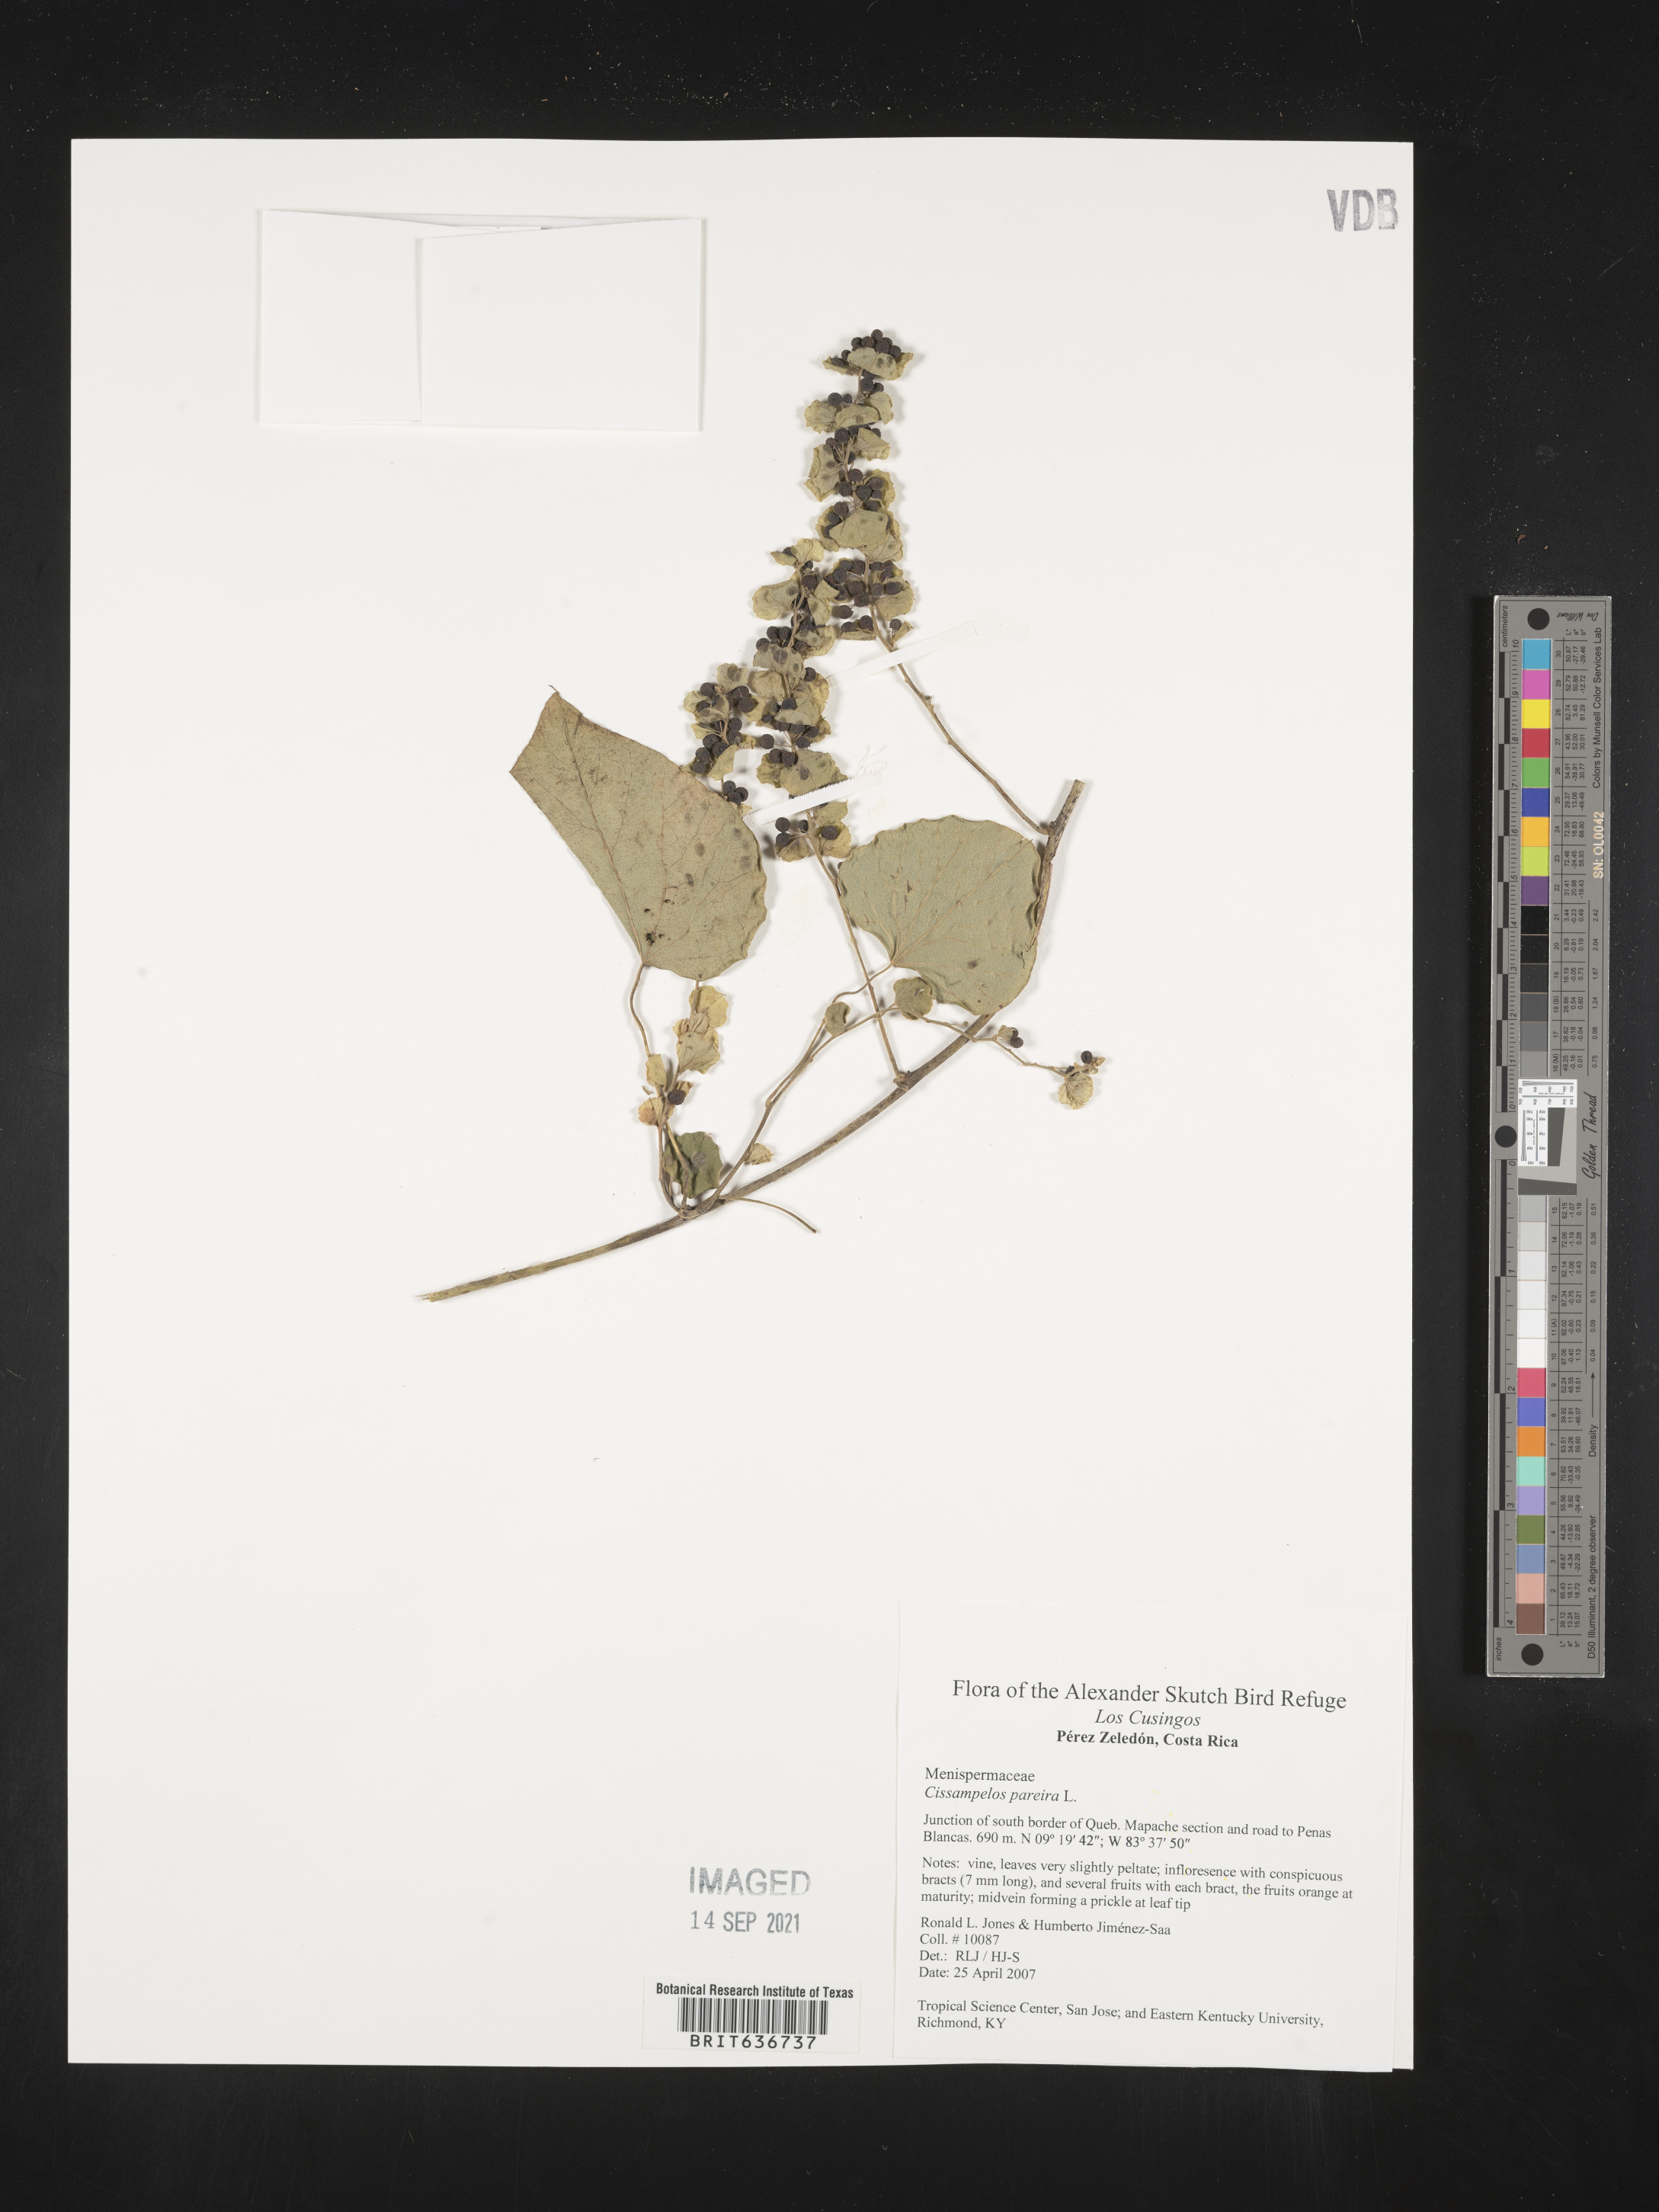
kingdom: Plantae
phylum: Tracheophyta
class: Magnoliopsida
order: Ranunculales
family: Menispermaceae
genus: Cissampelos
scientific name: Cissampelos
